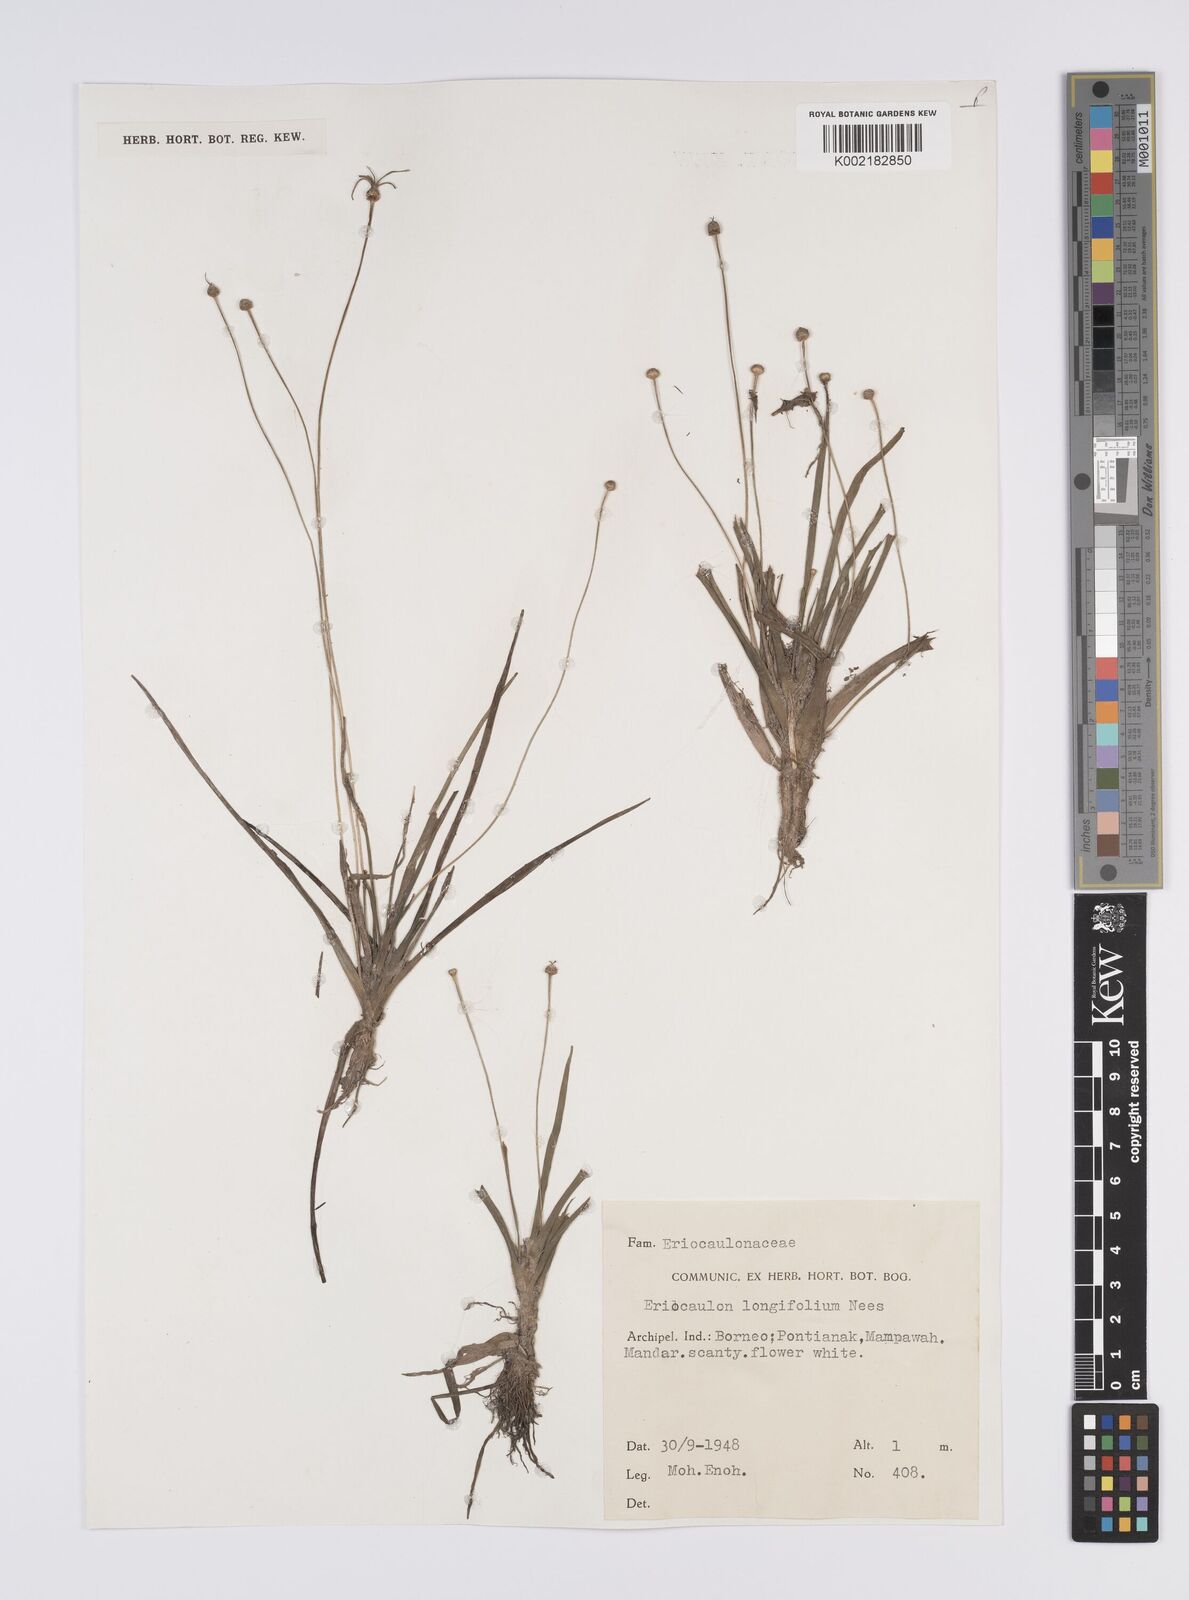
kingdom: Plantae
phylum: Tracheophyta
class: Liliopsida
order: Poales
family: Eriocaulaceae
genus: Eriocaulon
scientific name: Eriocaulon willdenovianum
